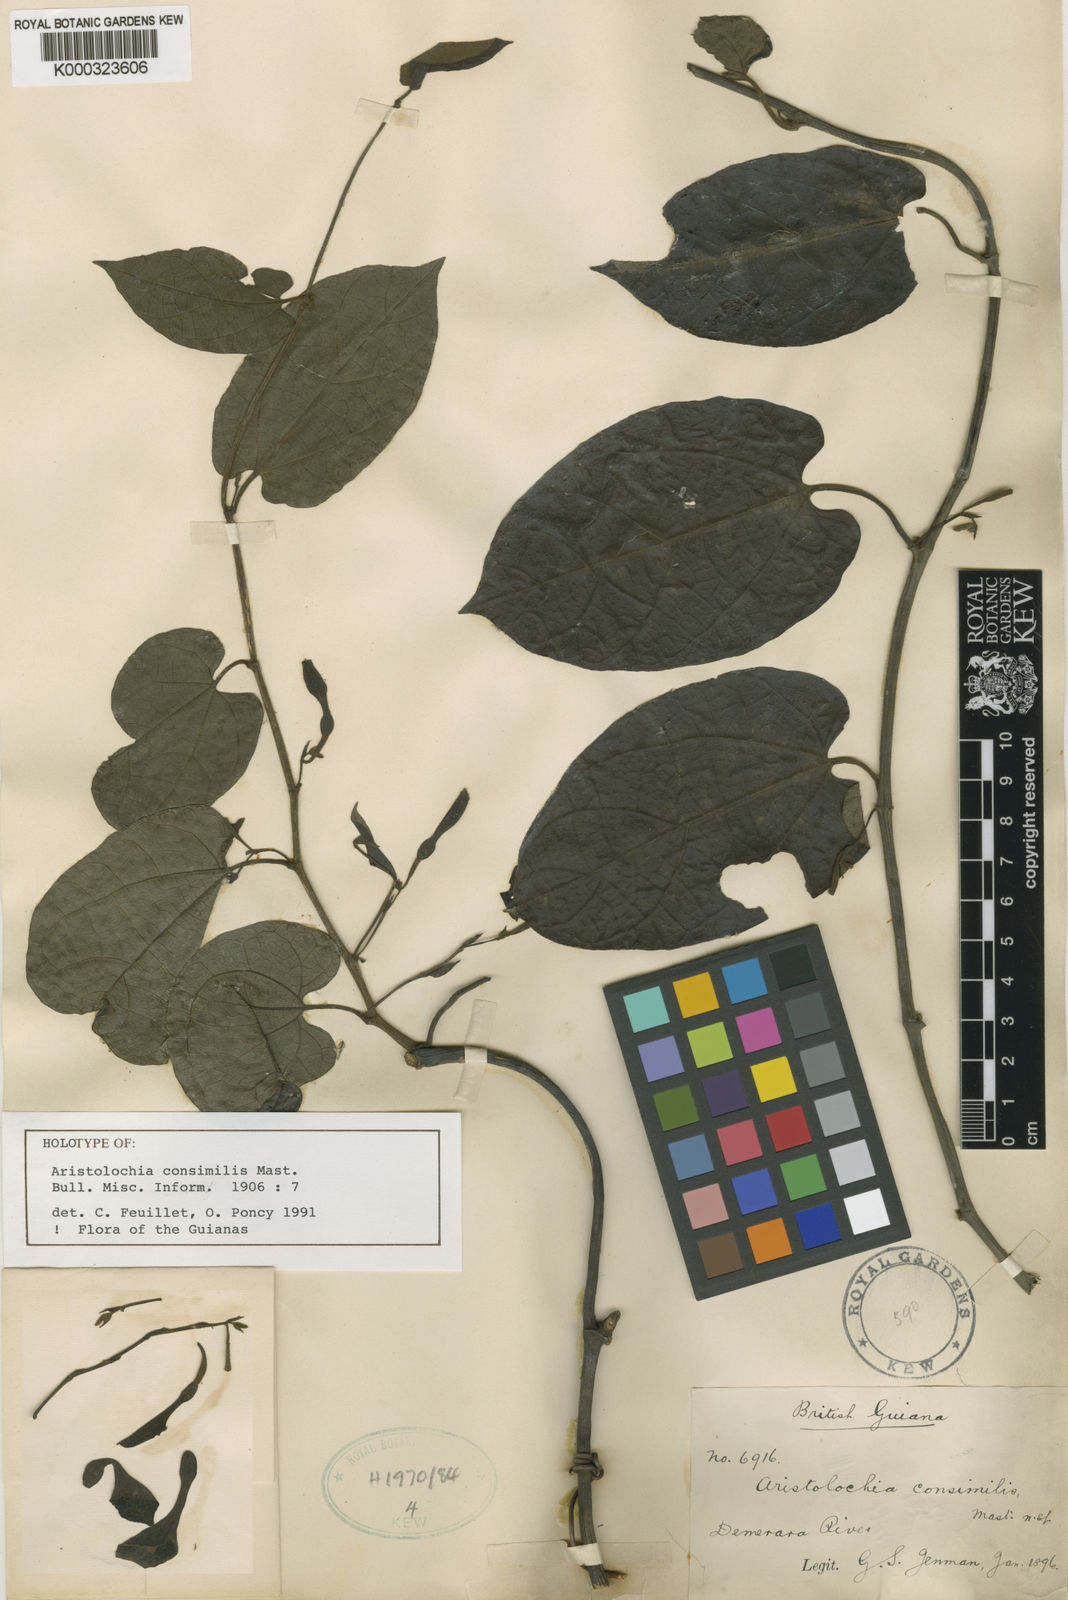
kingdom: Plantae
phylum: Tracheophyta
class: Magnoliopsida
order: Piperales
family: Aristolochiaceae
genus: Aristolochia
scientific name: Aristolochia consimilis
